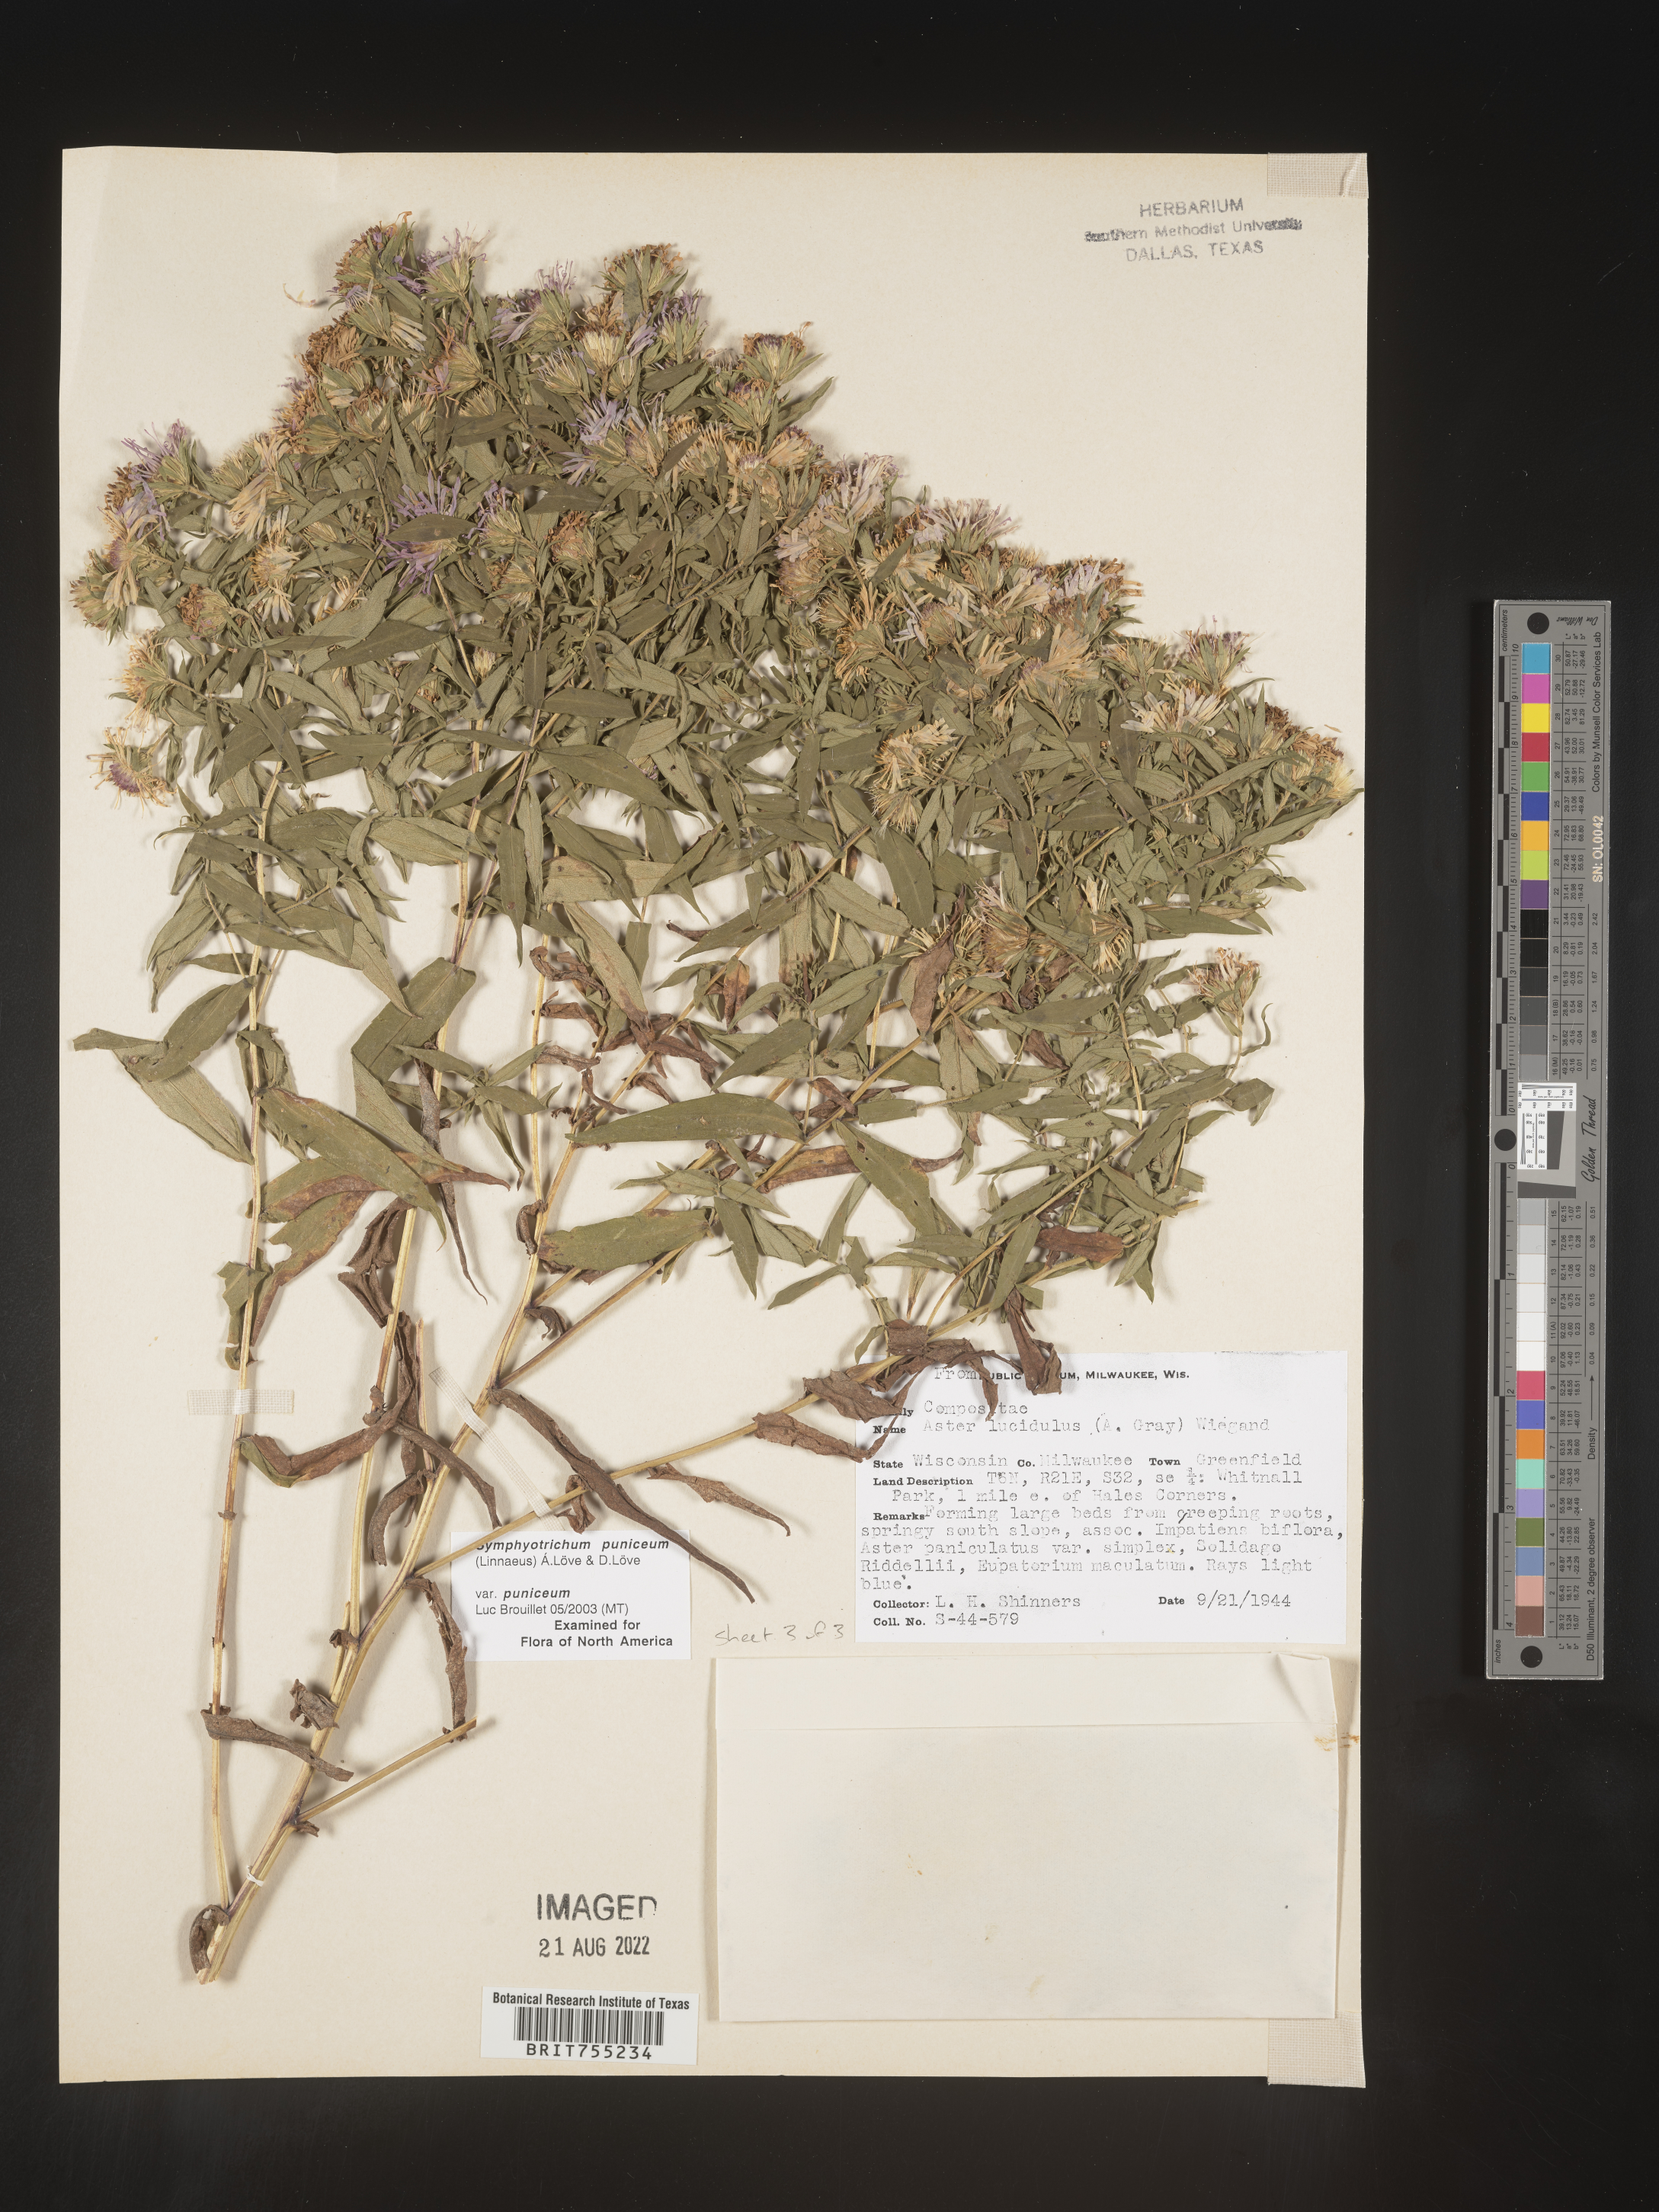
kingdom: Plantae
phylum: Tracheophyta
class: Magnoliopsida
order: Asterales
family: Asteraceae
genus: Symphyotrichum
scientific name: Symphyotrichum puniceum
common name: Bog aster
